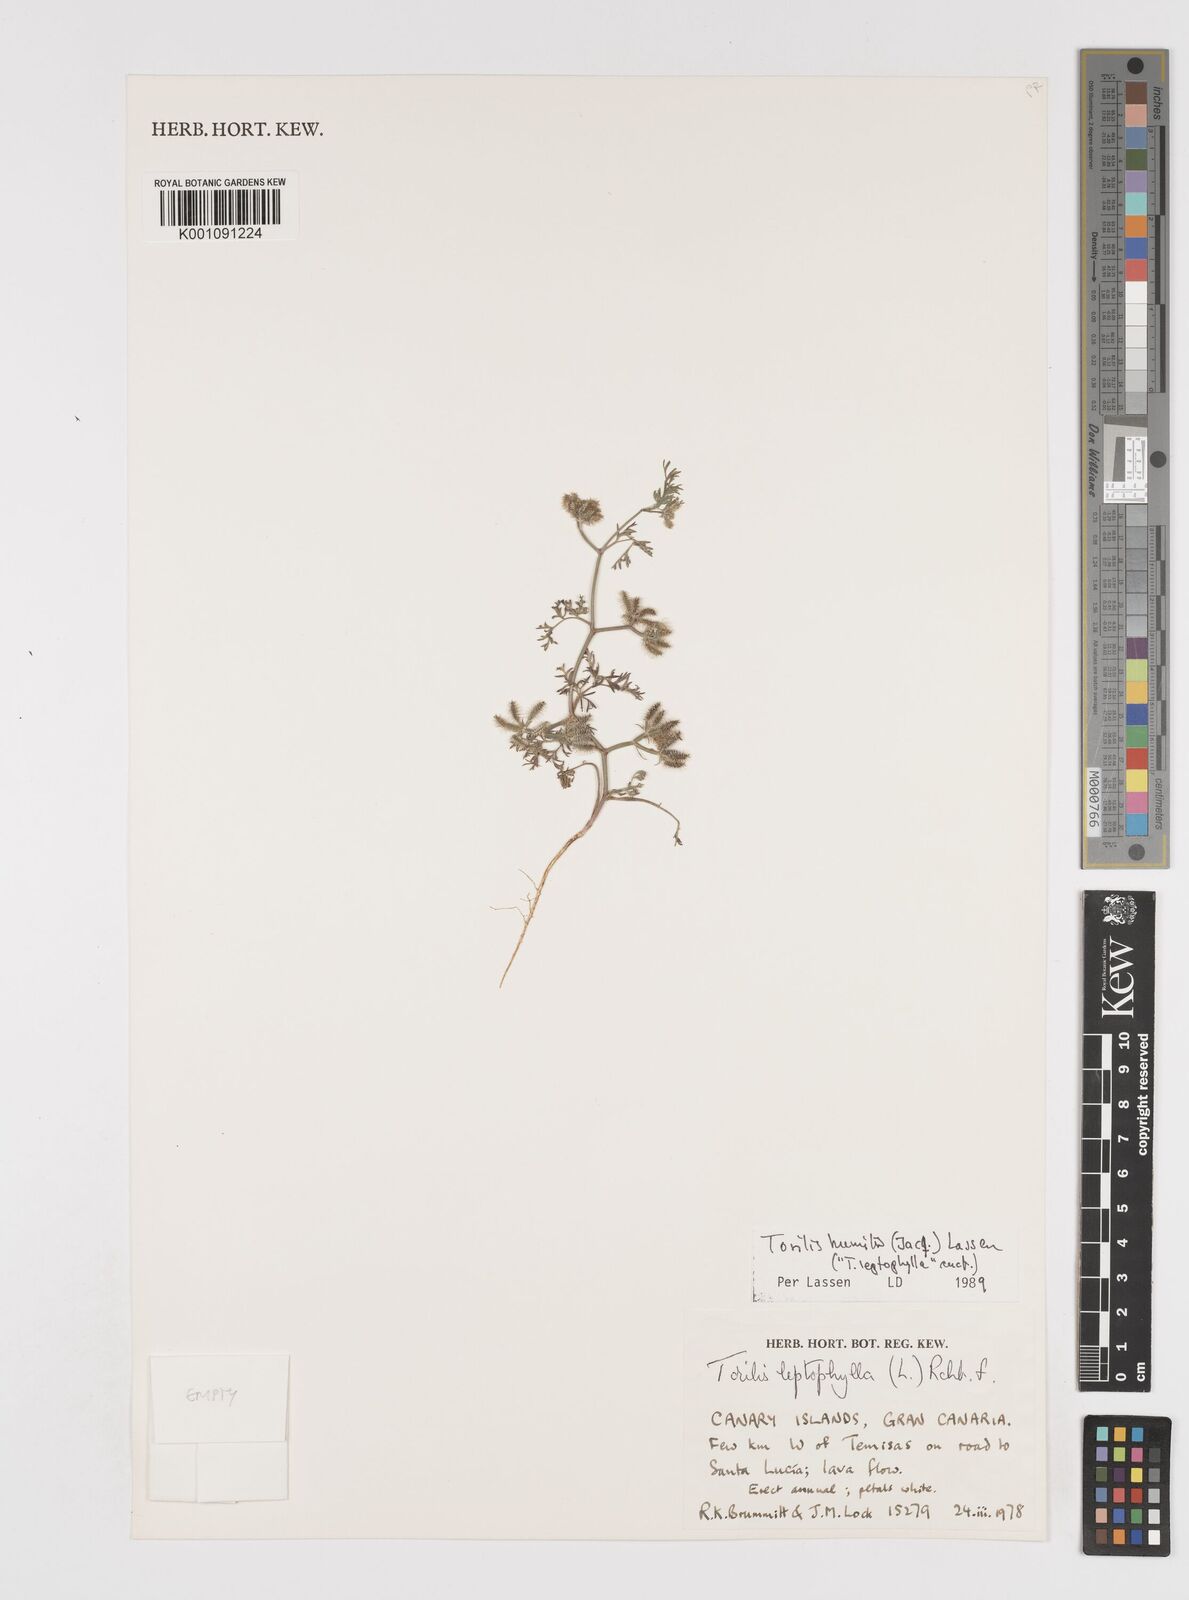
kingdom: Plantae
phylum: Tracheophyta
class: Magnoliopsida
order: Apiales
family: Apiaceae
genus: Torilis
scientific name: Torilis
